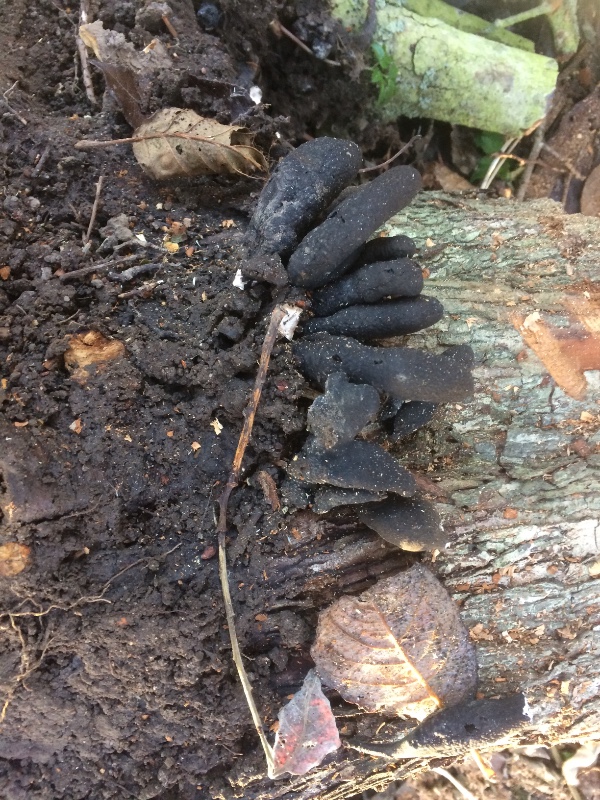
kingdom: Fungi
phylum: Ascomycota
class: Sordariomycetes
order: Xylariales
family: Xylariaceae
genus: Xylaria
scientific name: Xylaria polymorpha
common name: kølle-stødsvamp
